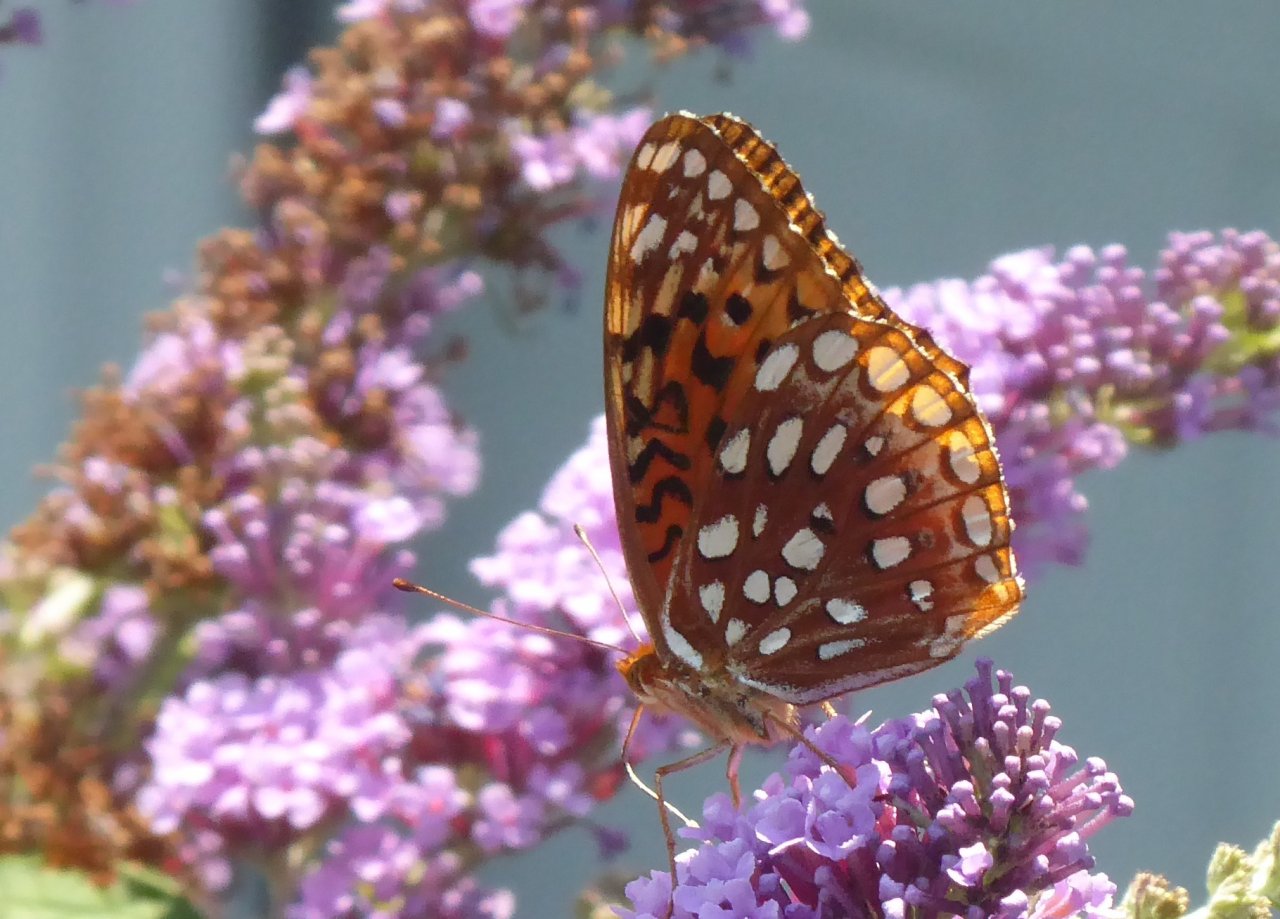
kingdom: Animalia
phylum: Arthropoda
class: Insecta
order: Lepidoptera
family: Nymphalidae
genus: Speyeria
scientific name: Speyeria atlantis
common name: Atlantis Fritillary
